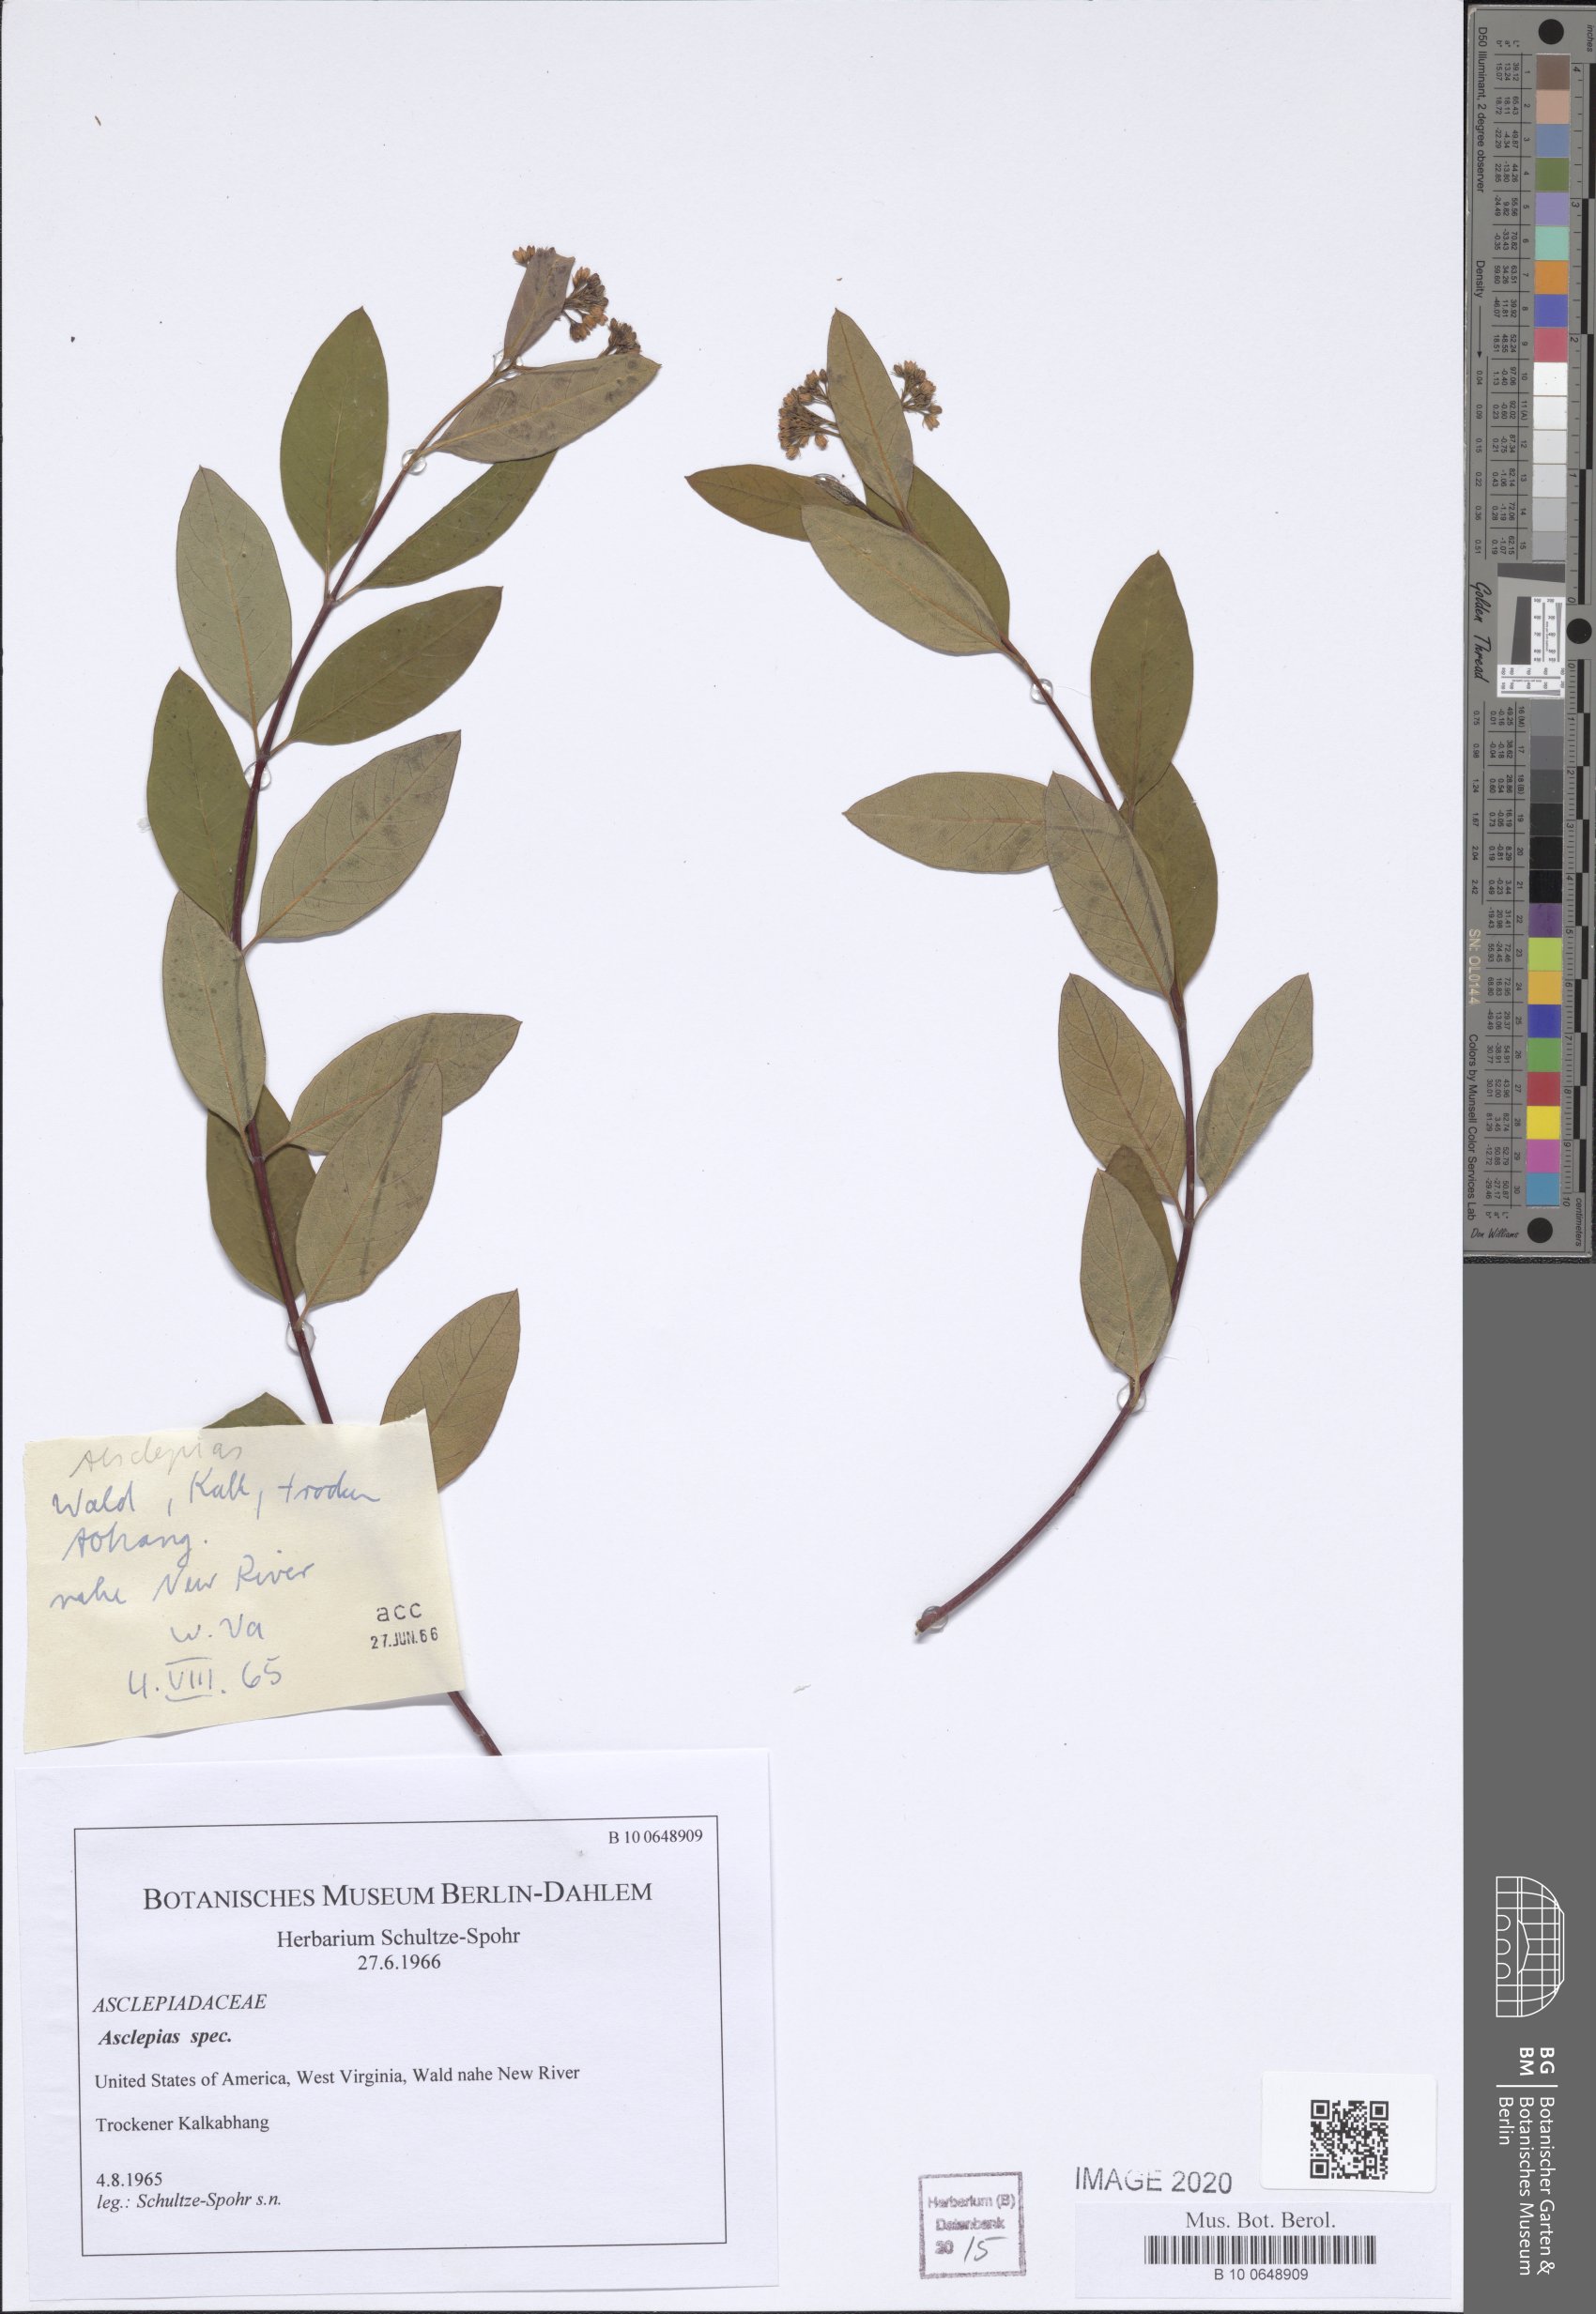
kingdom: Plantae
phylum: Tracheophyta
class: Magnoliopsida
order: Gentianales
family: Apocynaceae
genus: Asclepias
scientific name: Asclepias
